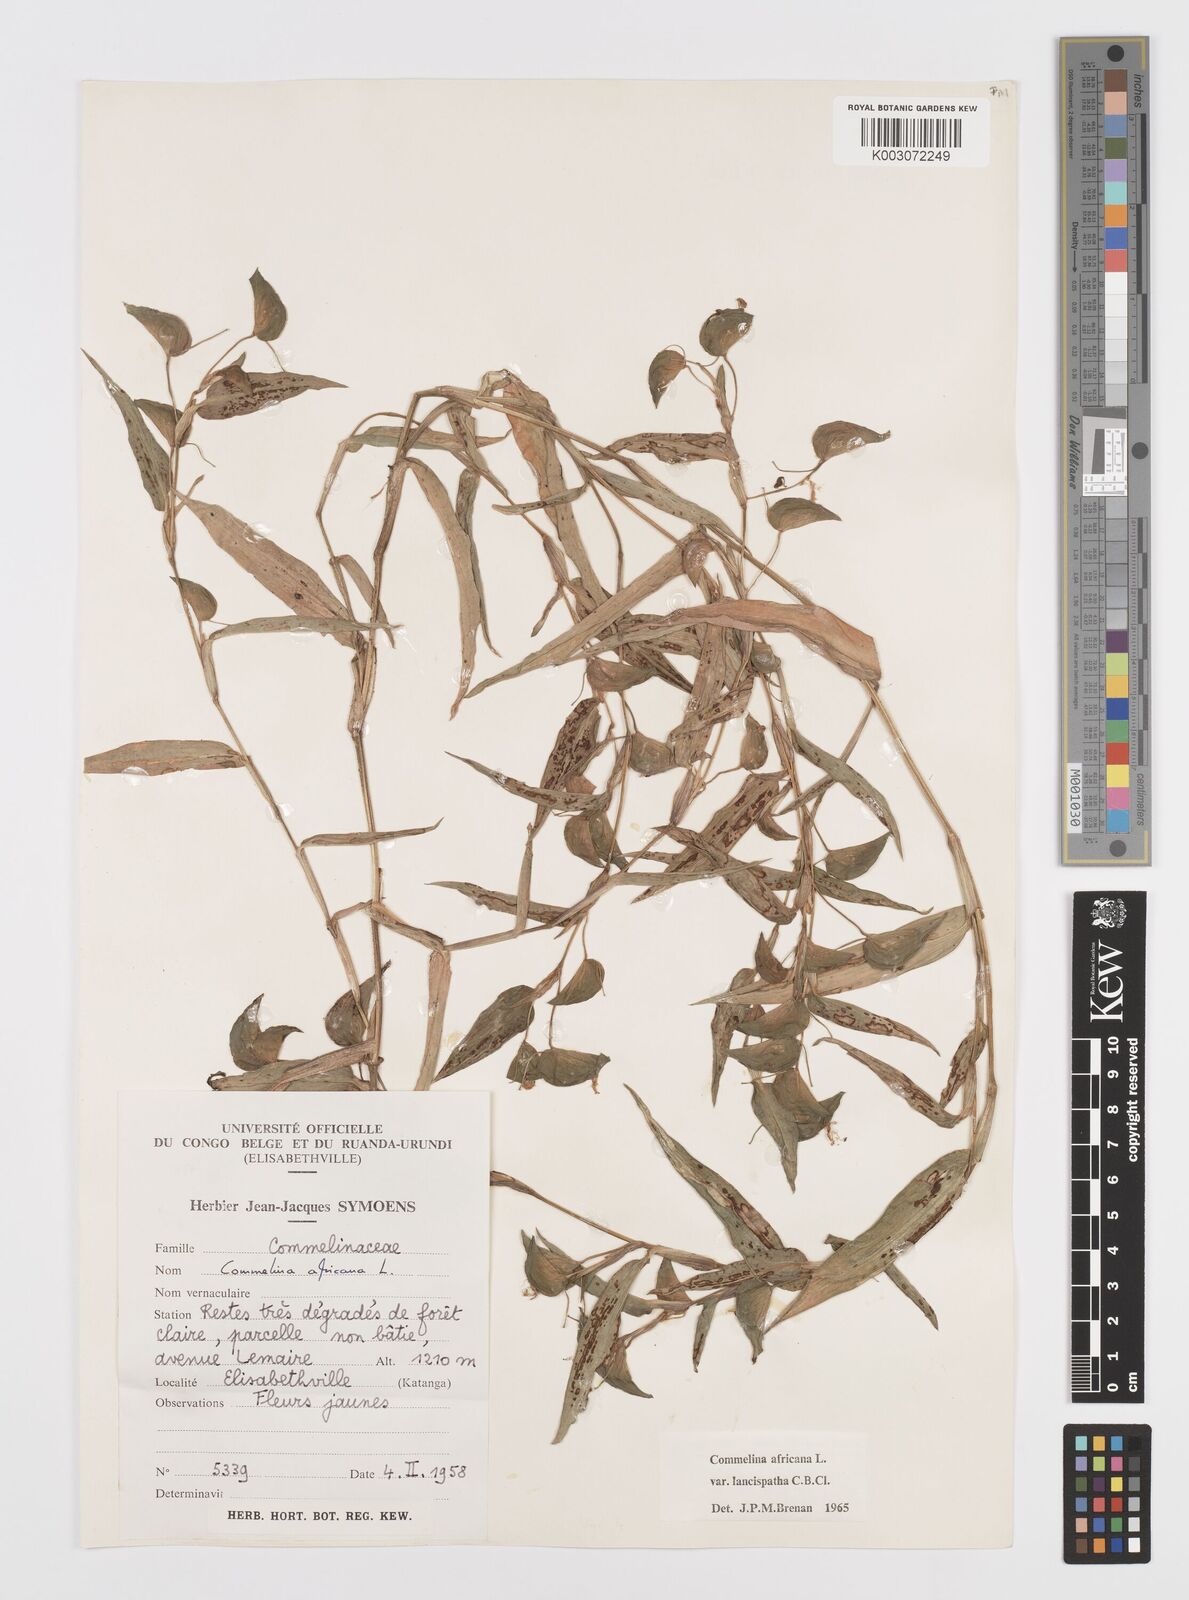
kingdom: Plantae
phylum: Tracheophyta
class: Liliopsida
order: Commelinales
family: Commelinaceae
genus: Commelina
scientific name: Commelina africana
